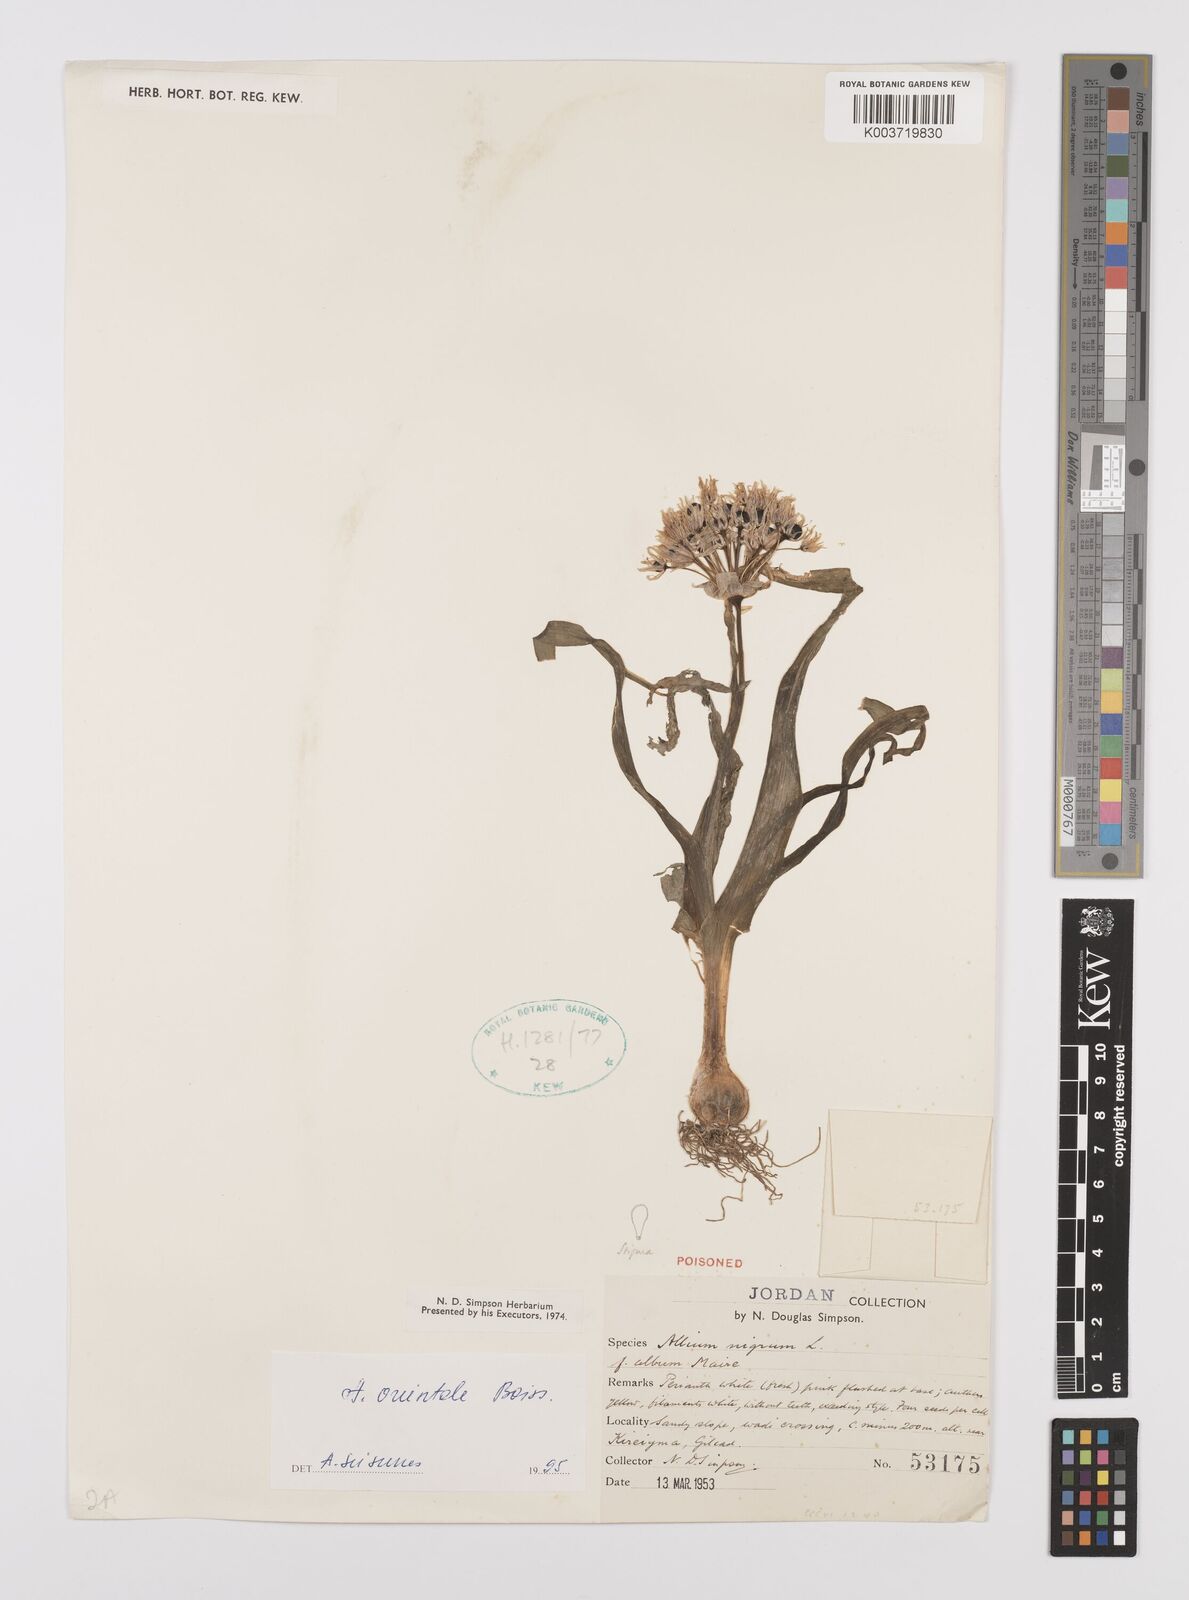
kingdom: Plantae
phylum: Tracheophyta
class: Liliopsida
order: Asparagales
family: Amaryllidaceae
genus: Allium
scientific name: Allium nigrum
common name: Black garlic
